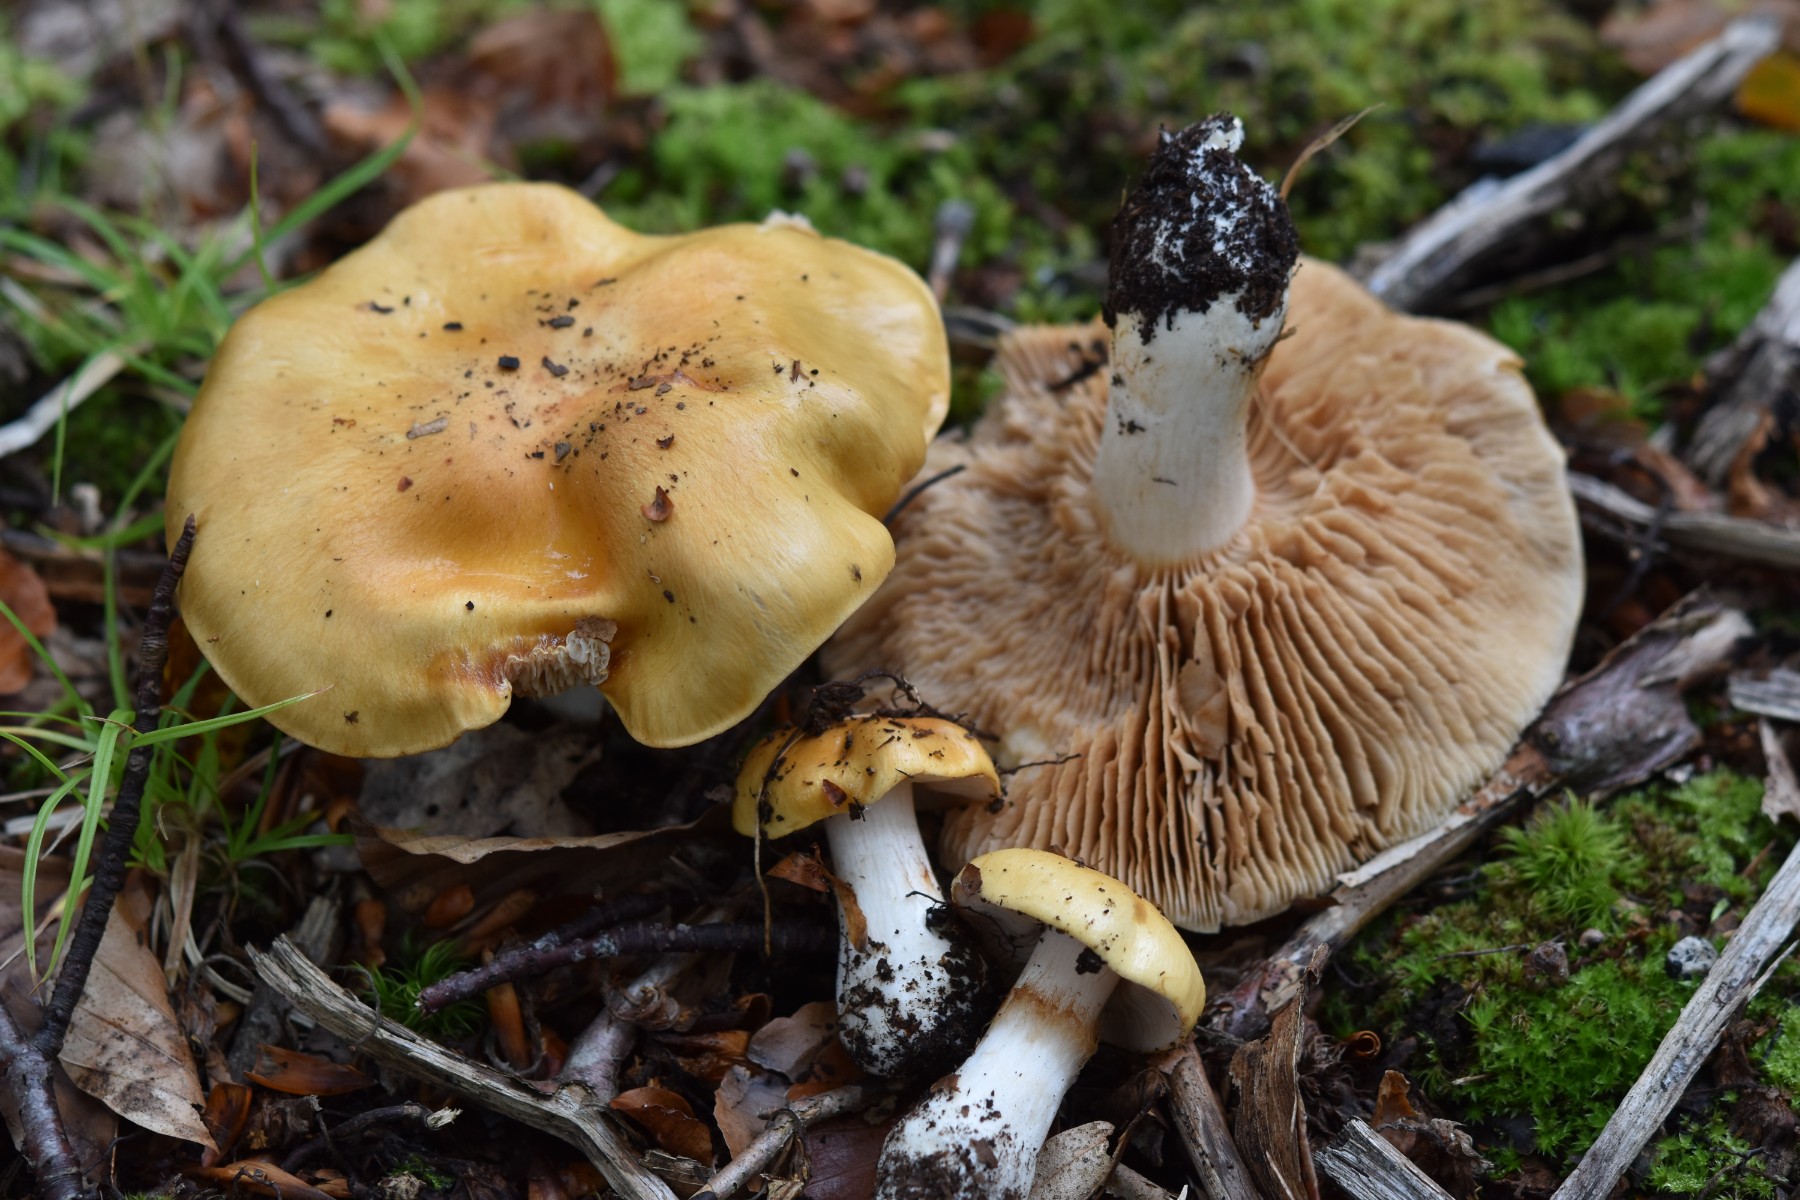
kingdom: Fungi
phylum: Basidiomycota
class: Agaricomycetes
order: Agaricales
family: Cortinariaceae
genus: Thaxterogaster
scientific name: Thaxterogaster emollitus
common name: besk slørhat
